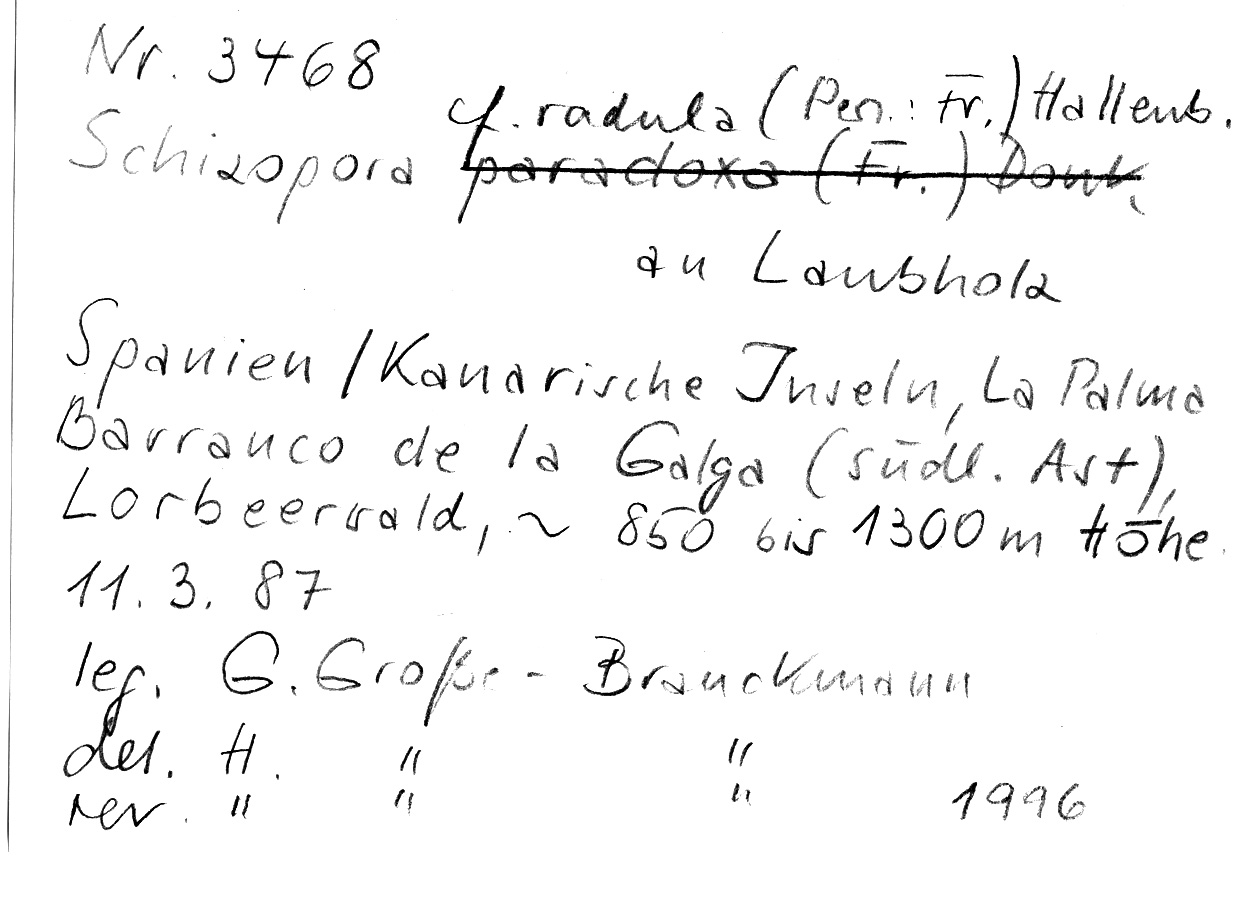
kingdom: Fungi
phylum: Basidiomycota
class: Agaricomycetes
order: Hymenochaetales
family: Schizoporaceae
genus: Xylodon
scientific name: Xylodon raduloides
